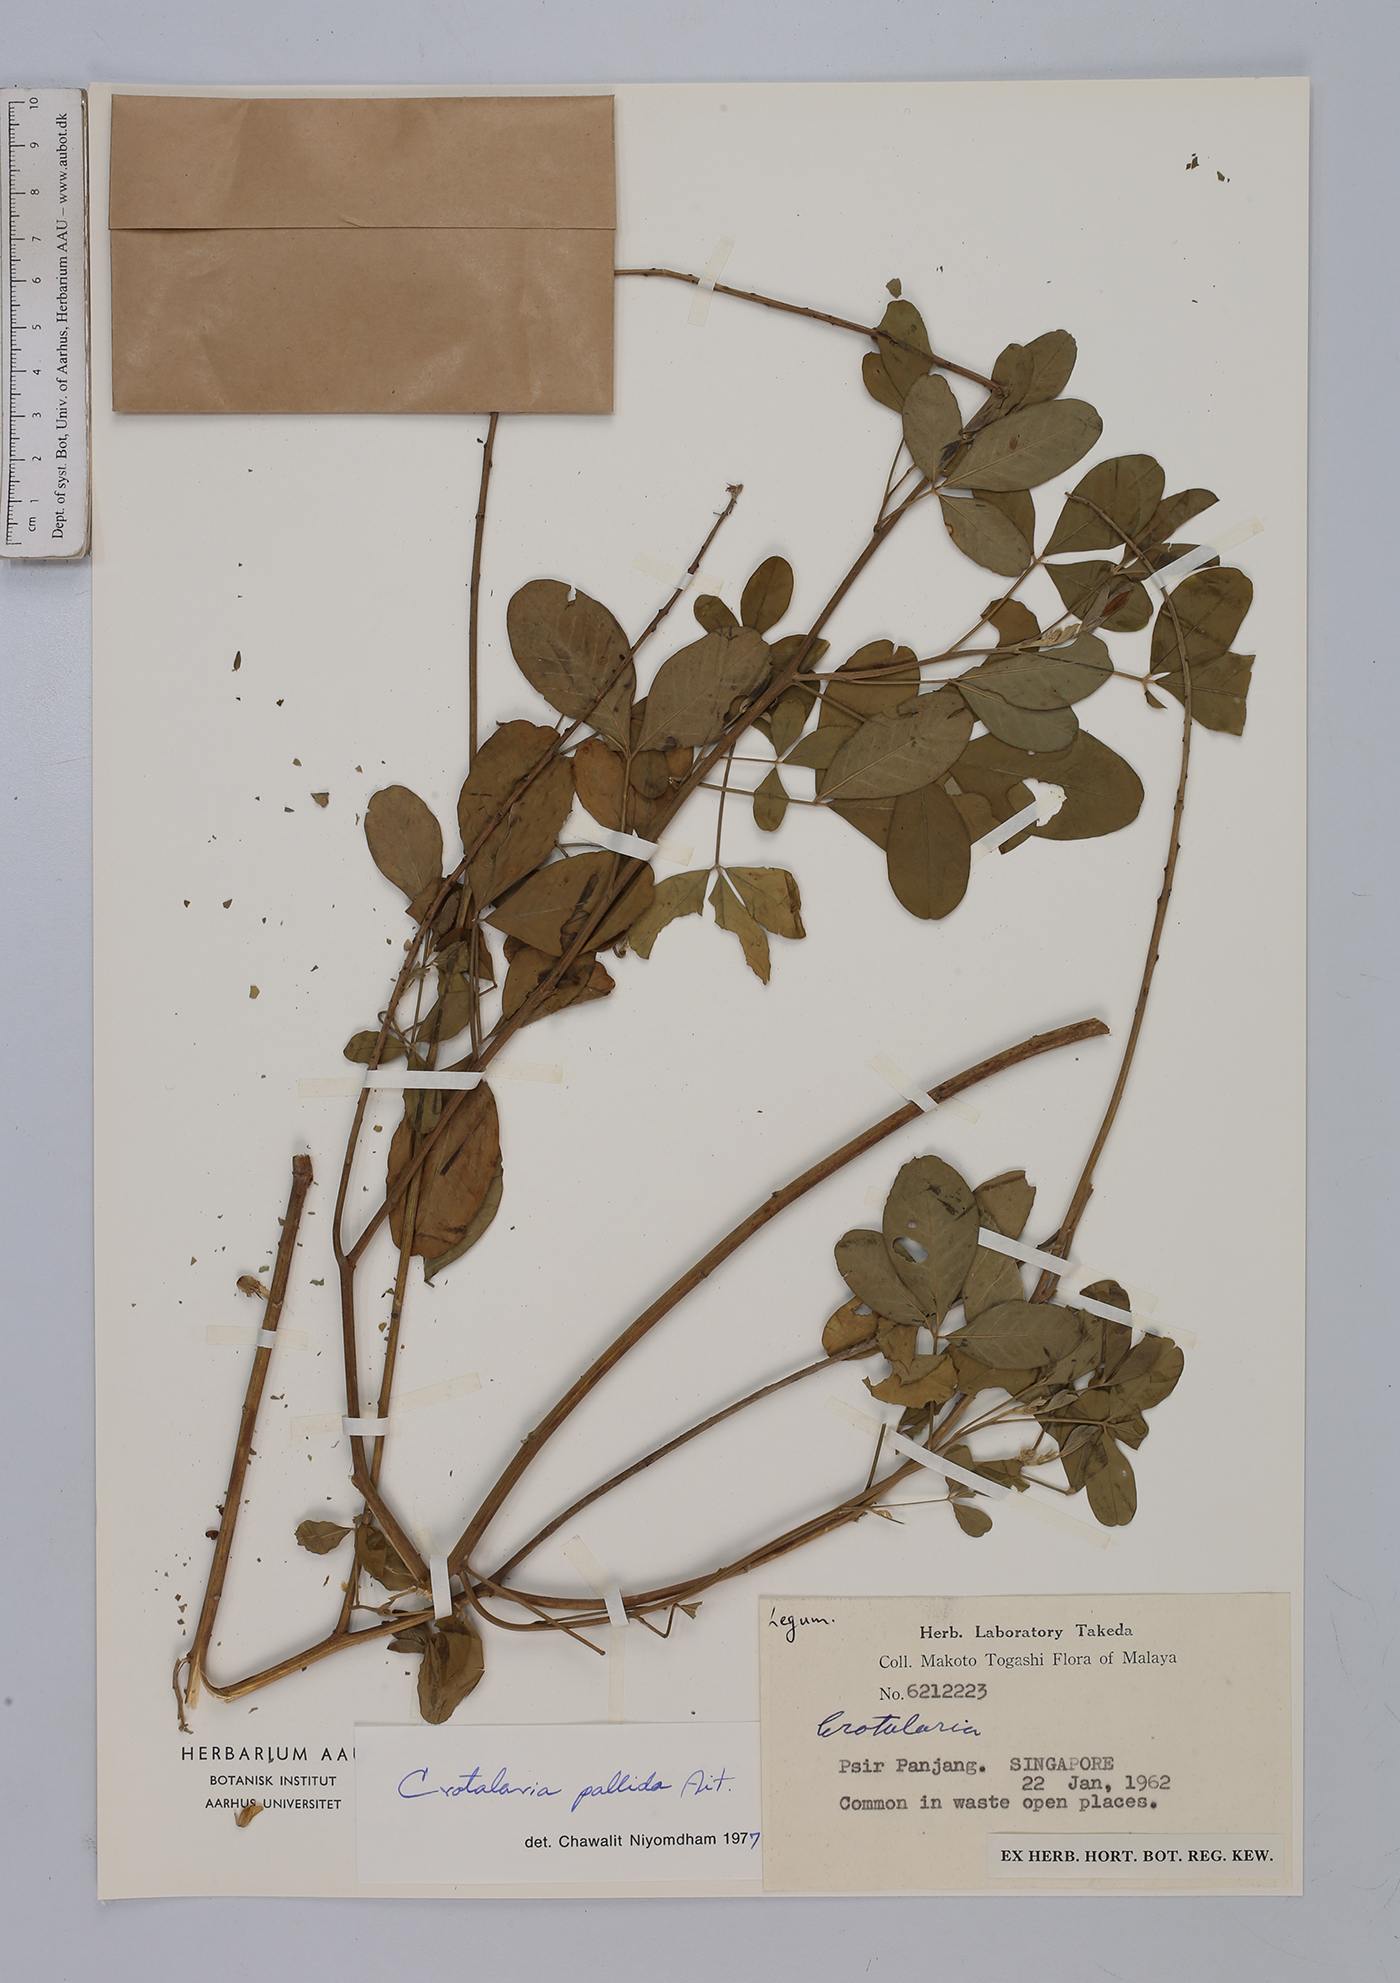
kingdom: Plantae
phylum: Tracheophyta
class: Magnoliopsida
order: Fabales
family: Fabaceae
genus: Crotalaria
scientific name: Crotalaria pallida
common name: Smooth rattlebox
